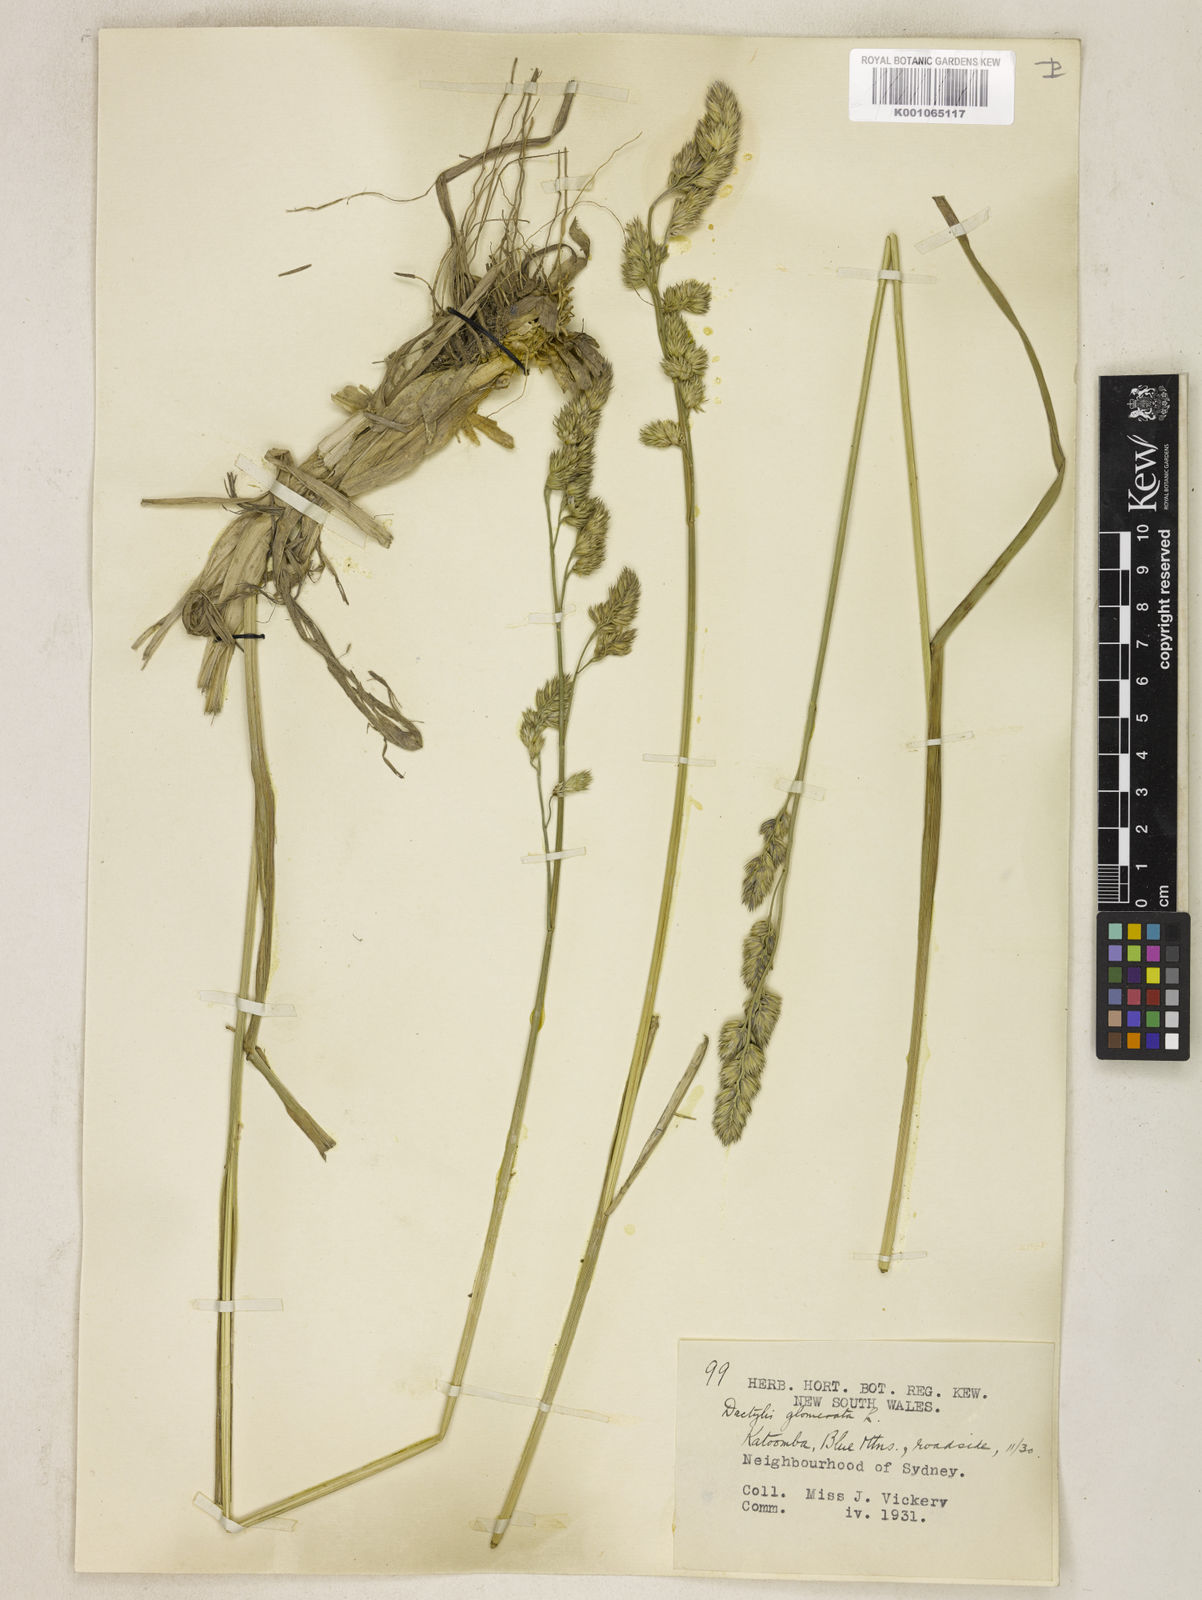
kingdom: Plantae
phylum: Tracheophyta
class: Liliopsida
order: Poales
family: Poaceae
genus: Dactylis
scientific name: Dactylis glomerata
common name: Orchardgrass
